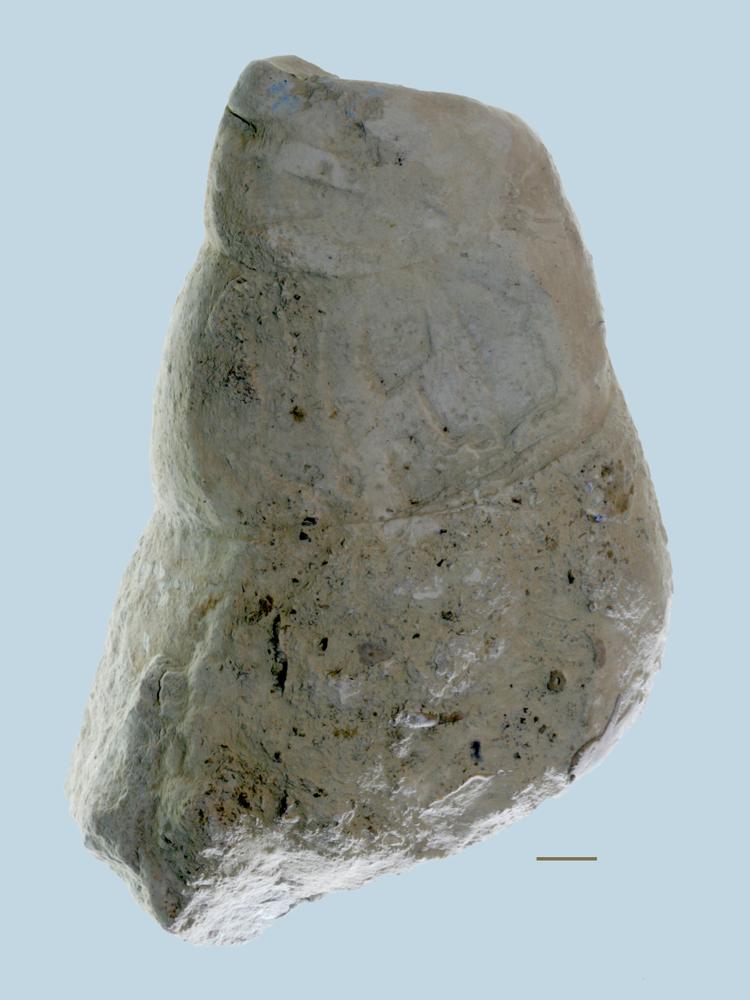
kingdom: Animalia
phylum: Mollusca
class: Gastropoda
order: Pleurotomariida
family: Murchisoniidae
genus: Murchisonia
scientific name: Murchisonia
